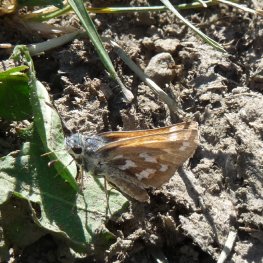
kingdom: Animalia
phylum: Arthropoda
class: Insecta
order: Lepidoptera
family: Hesperiidae
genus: Hesperia
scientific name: Hesperia juba
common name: Juba Skipper
